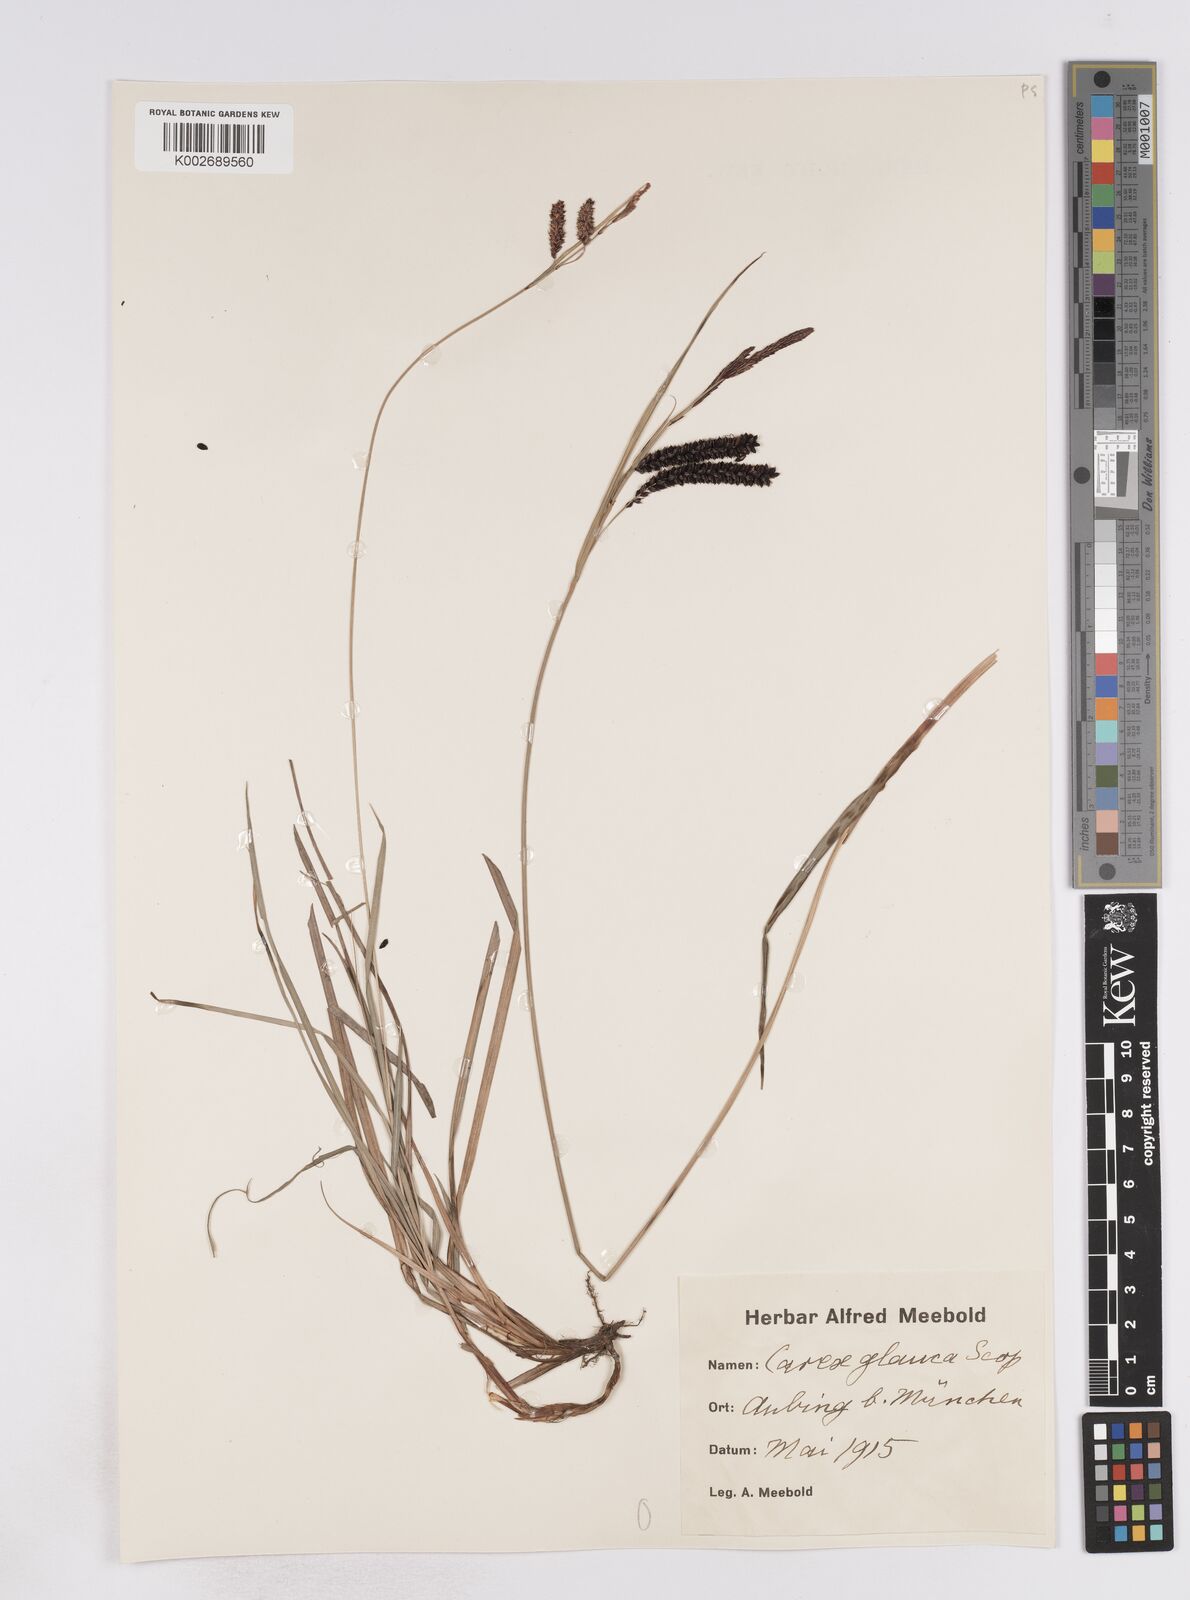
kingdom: Plantae
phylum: Tracheophyta
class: Liliopsida
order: Poales
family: Cyperaceae
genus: Carex
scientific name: Carex flacca
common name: Glaucous sedge
